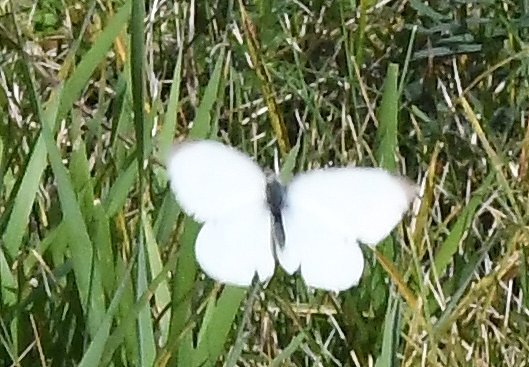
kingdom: Animalia
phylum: Arthropoda
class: Insecta
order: Lepidoptera
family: Pieridae
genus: Pieris
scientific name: Pieris rapae
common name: Cabbage White
